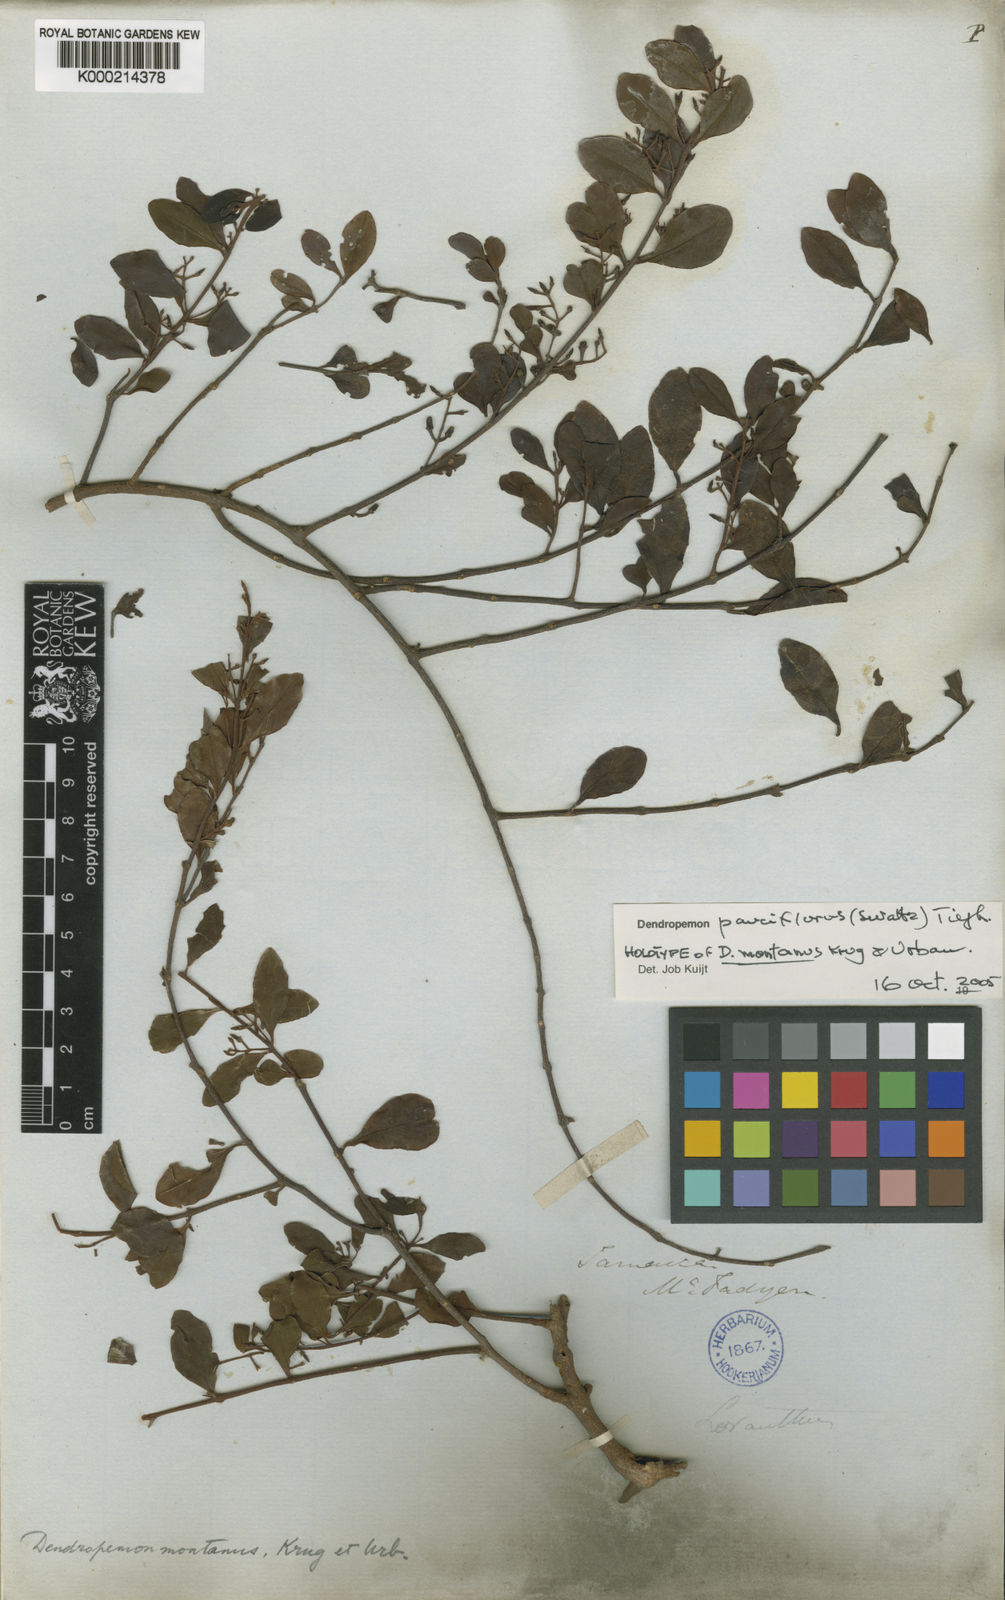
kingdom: Plantae
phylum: Tracheophyta
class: Magnoliopsida
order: Santalales
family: Loranthaceae
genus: Dendropemon
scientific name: Dendropemon pauciflorus
